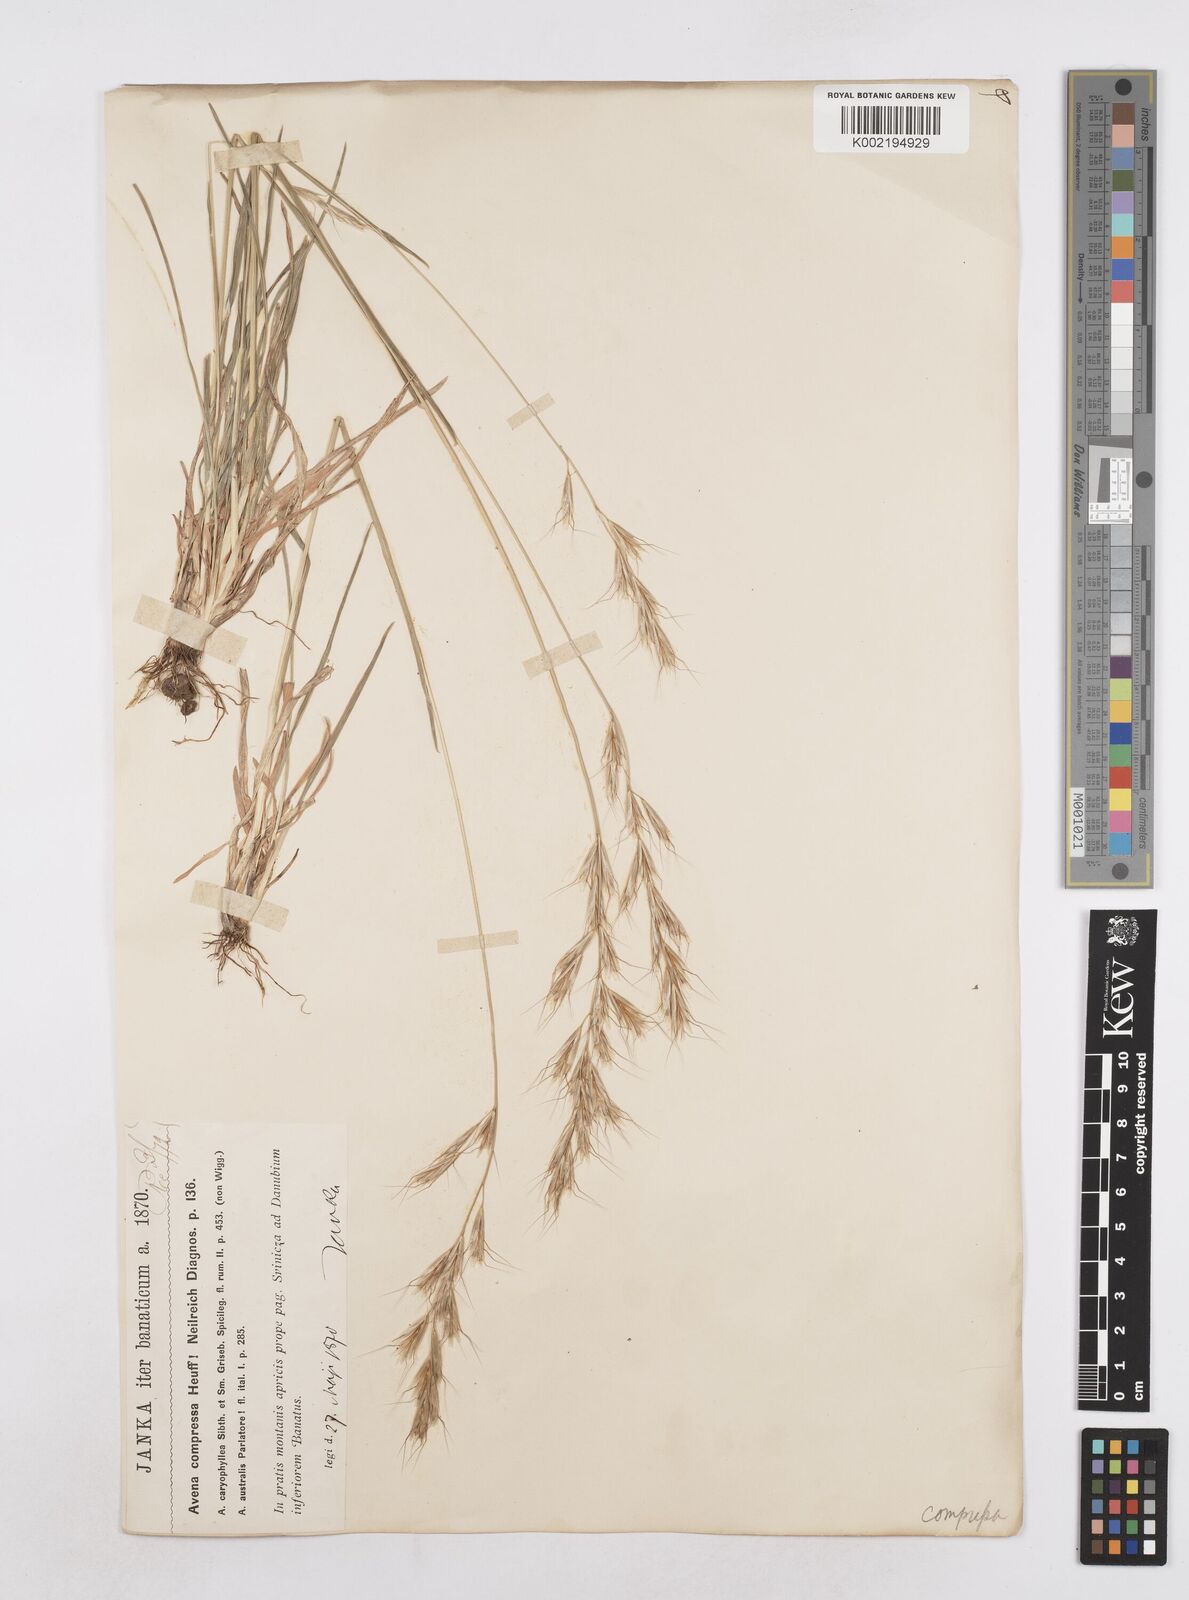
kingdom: Plantae
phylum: Tracheophyta
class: Liliopsida
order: Poales
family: Poaceae
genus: Helictochloa
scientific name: Helictochloa compressa
